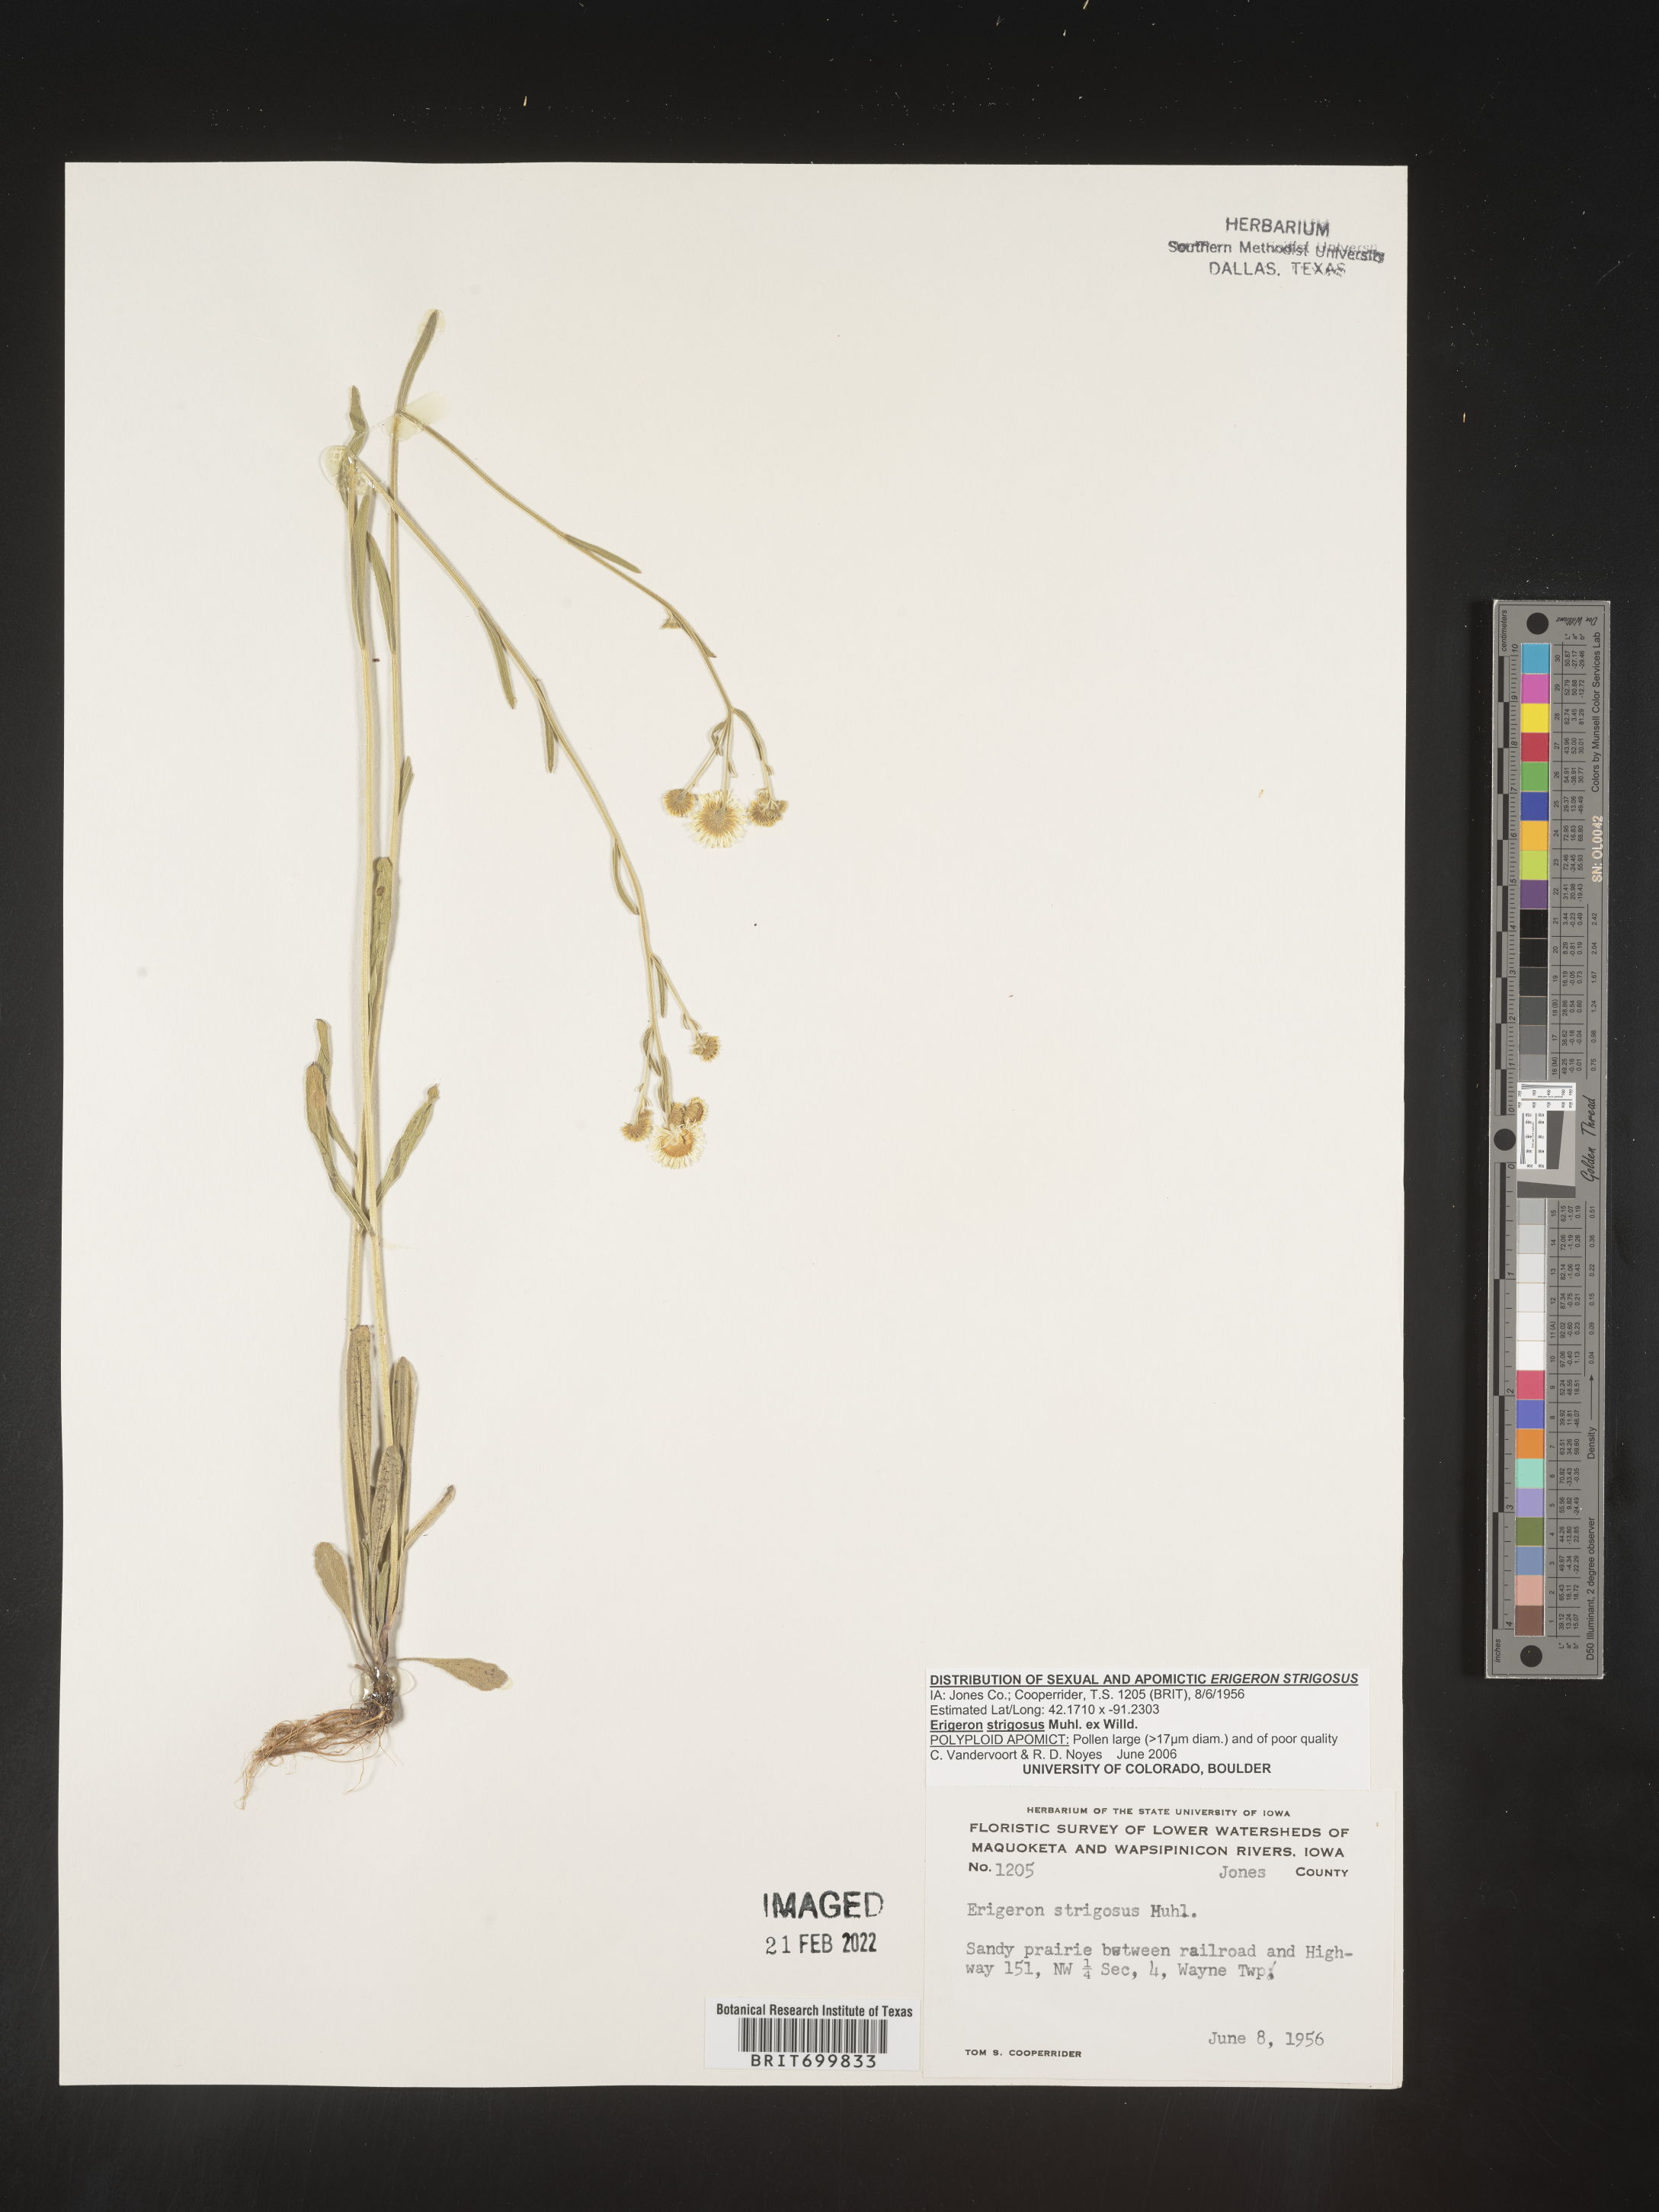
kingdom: Plantae
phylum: Tracheophyta
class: Magnoliopsida
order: Asterales
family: Asteraceae
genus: Erigeron
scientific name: Erigeron strigosus
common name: Common eastern fleabane
